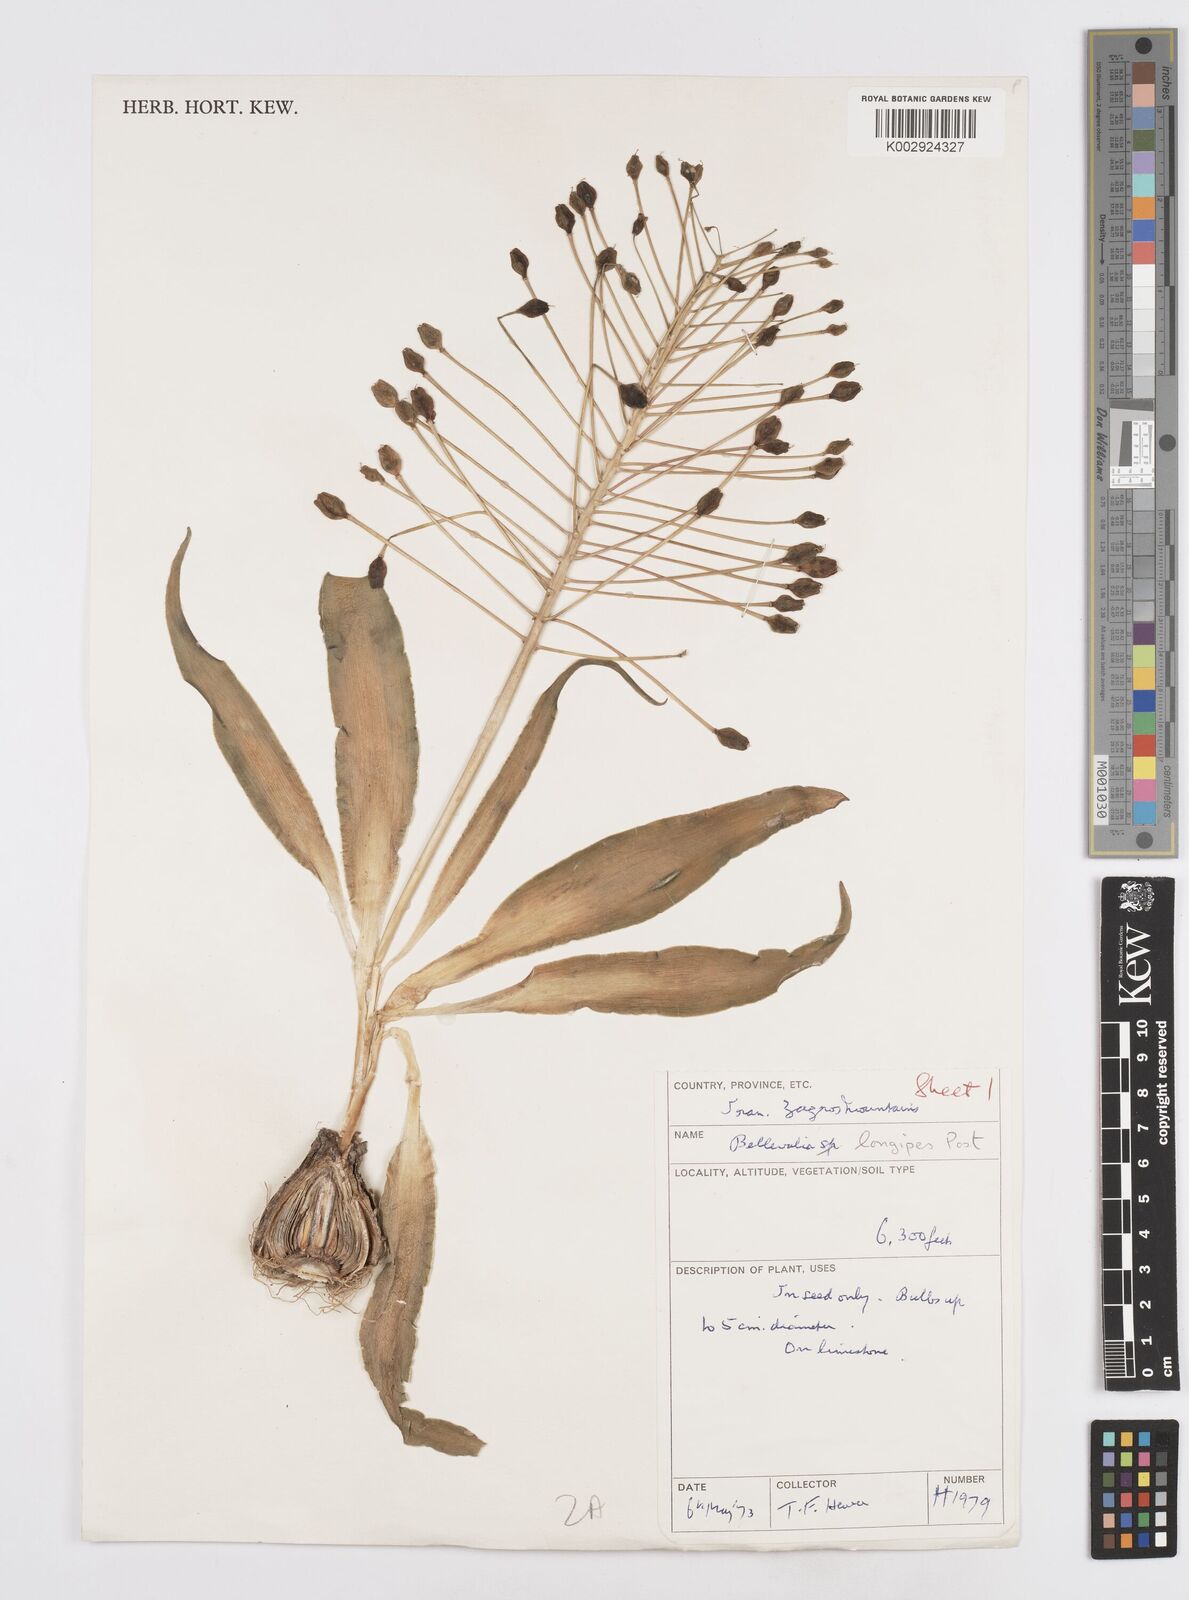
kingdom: Plantae
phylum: Tracheophyta
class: Liliopsida
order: Asparagales
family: Asparagaceae
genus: Bellevalia
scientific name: Bellevalia longipes
